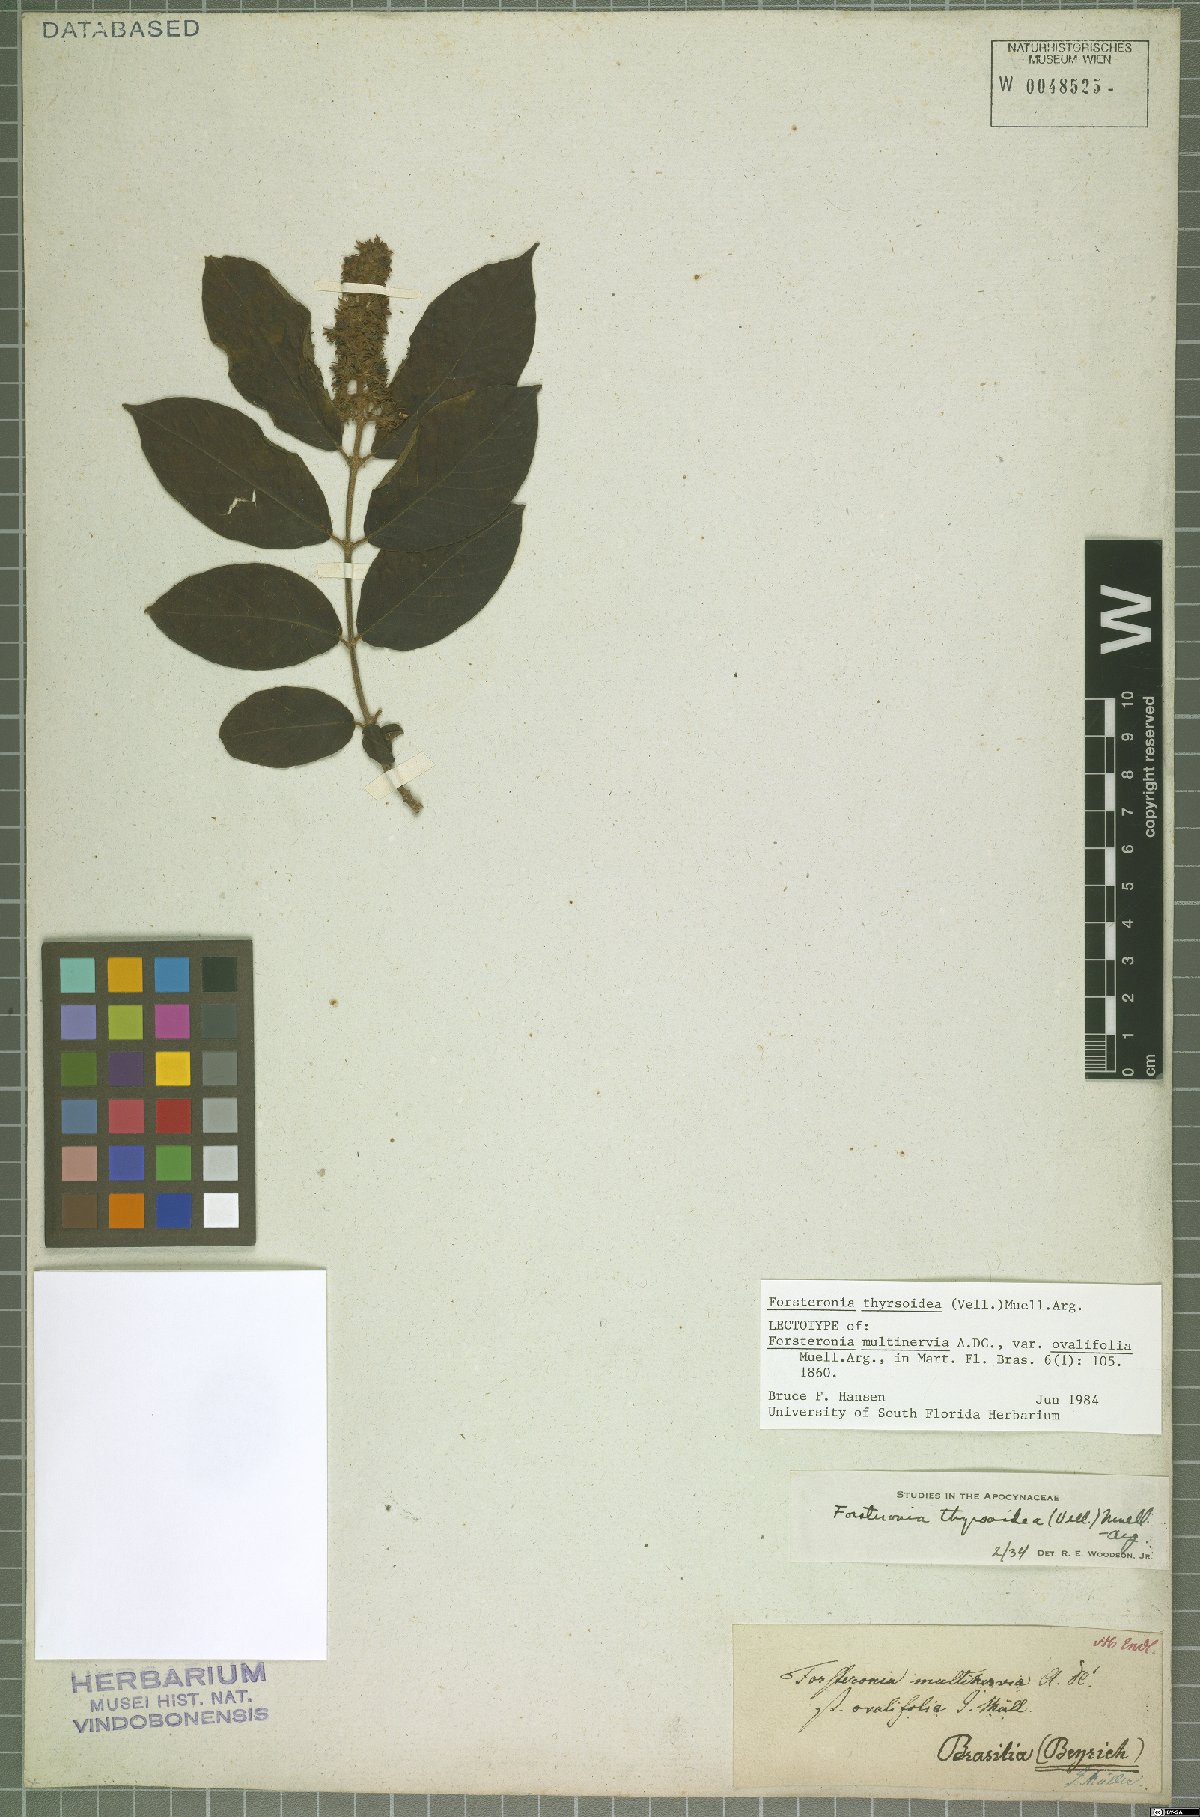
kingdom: Plantae
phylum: Tracheophyta
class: Magnoliopsida
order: Gentianales
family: Apocynaceae
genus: Forsteronia
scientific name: Forsteronia thyrsoidea
